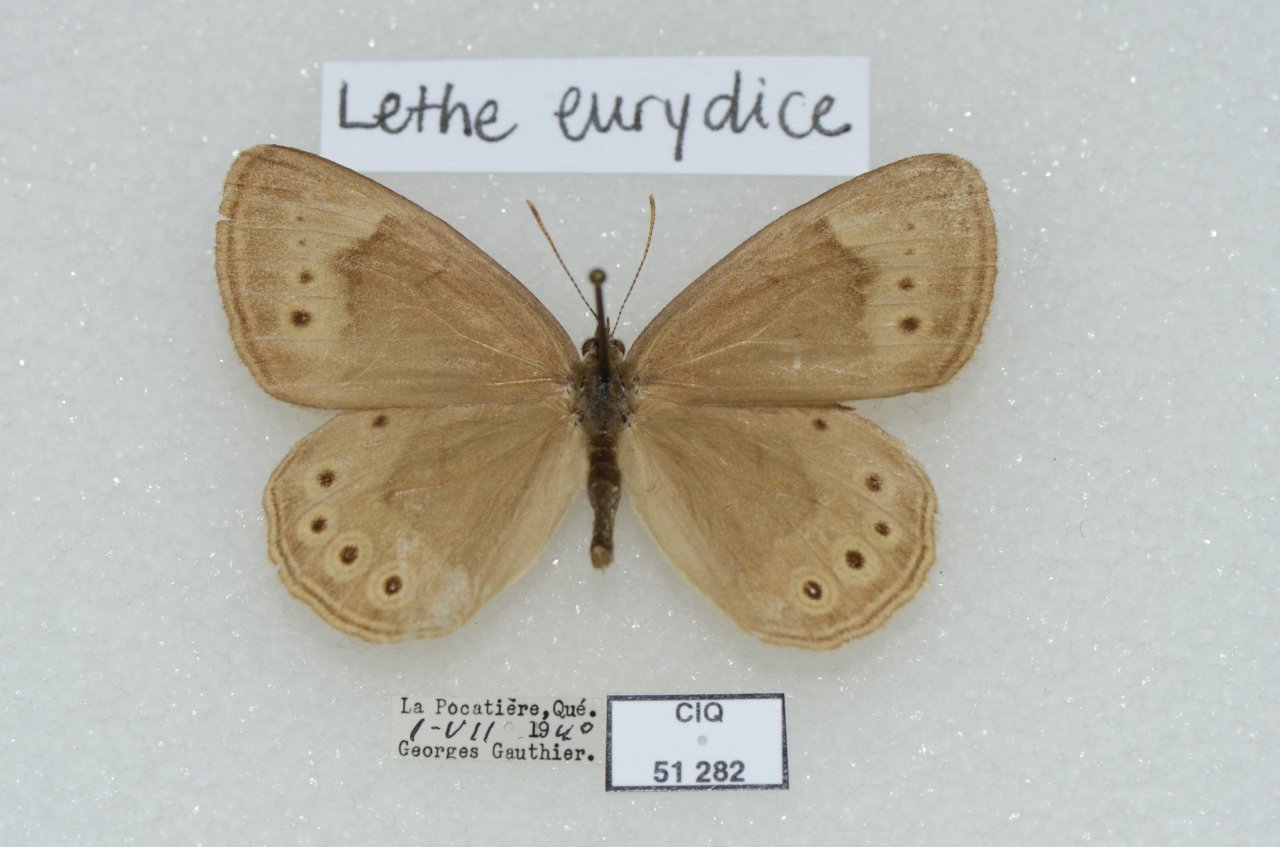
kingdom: Animalia
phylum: Arthropoda
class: Insecta
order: Lepidoptera
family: Nymphalidae
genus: Lethe
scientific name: Lethe eurydice
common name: Eyed Brown
